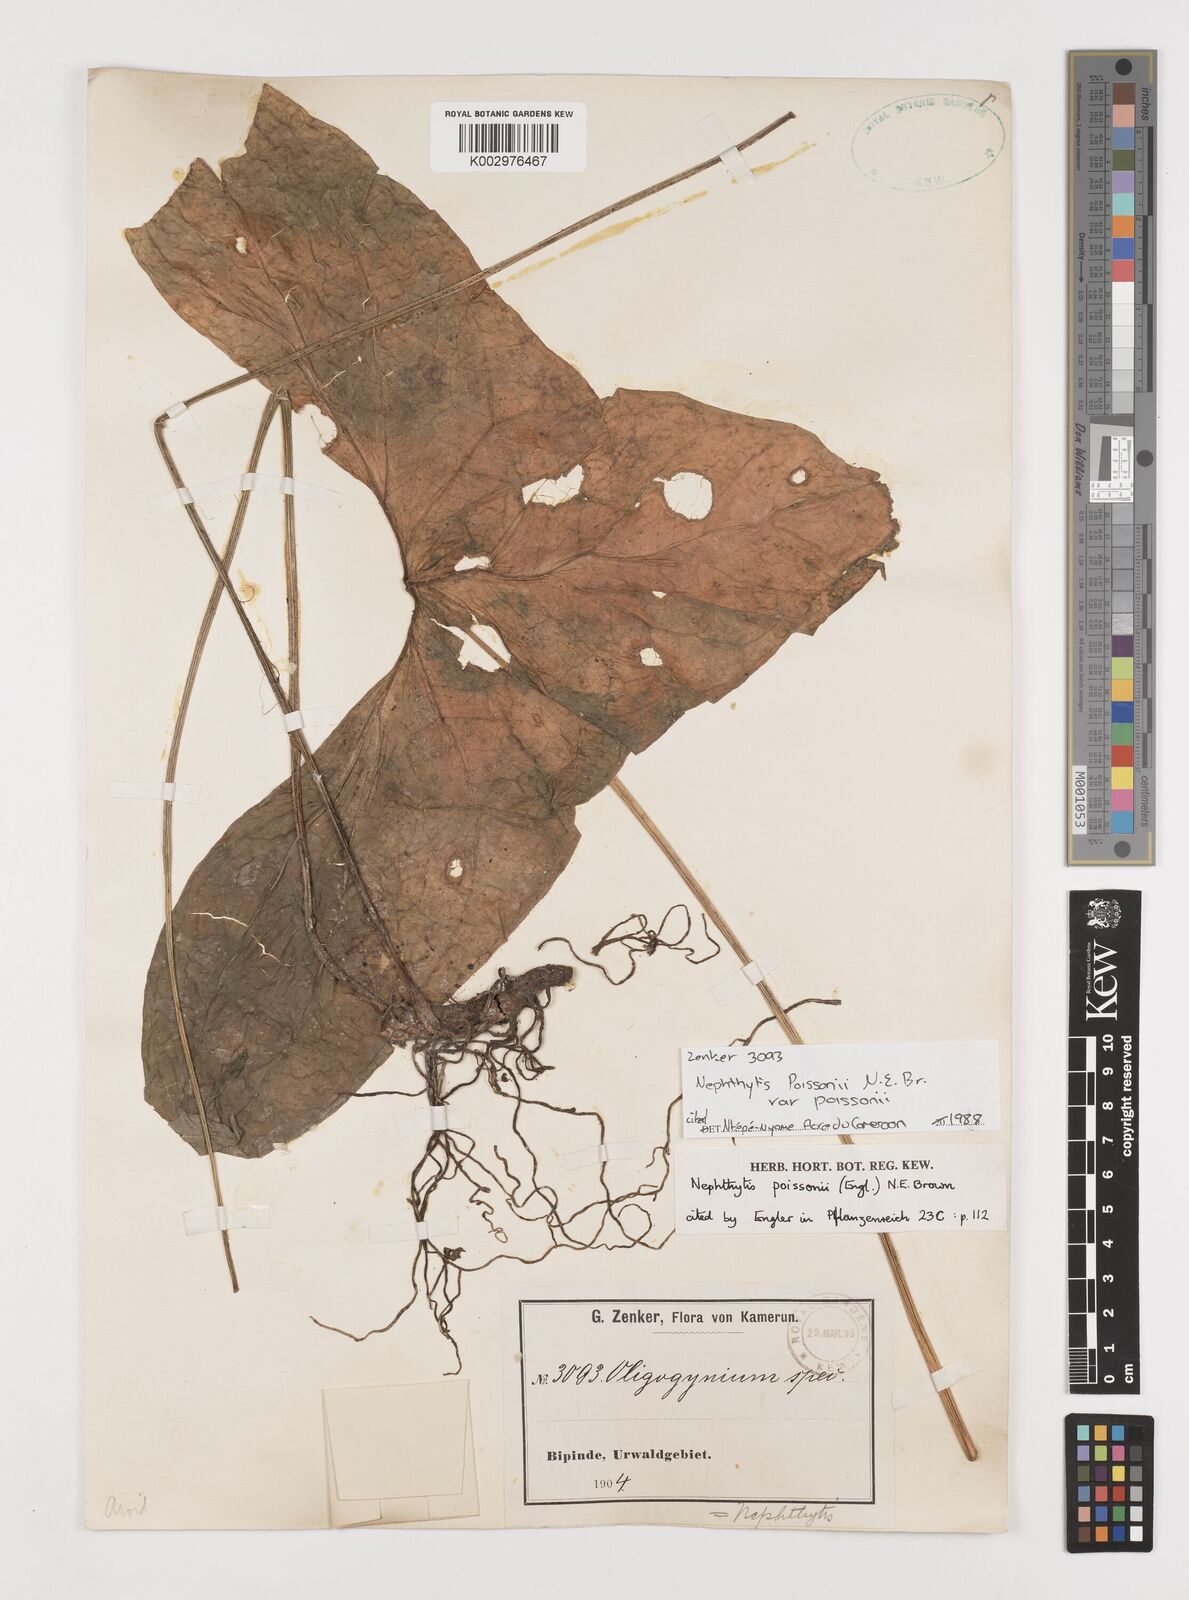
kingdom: Plantae
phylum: Tracheophyta
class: Liliopsida
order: Alismatales
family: Araceae
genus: Nephthytis
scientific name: Nephthytis poissonii
